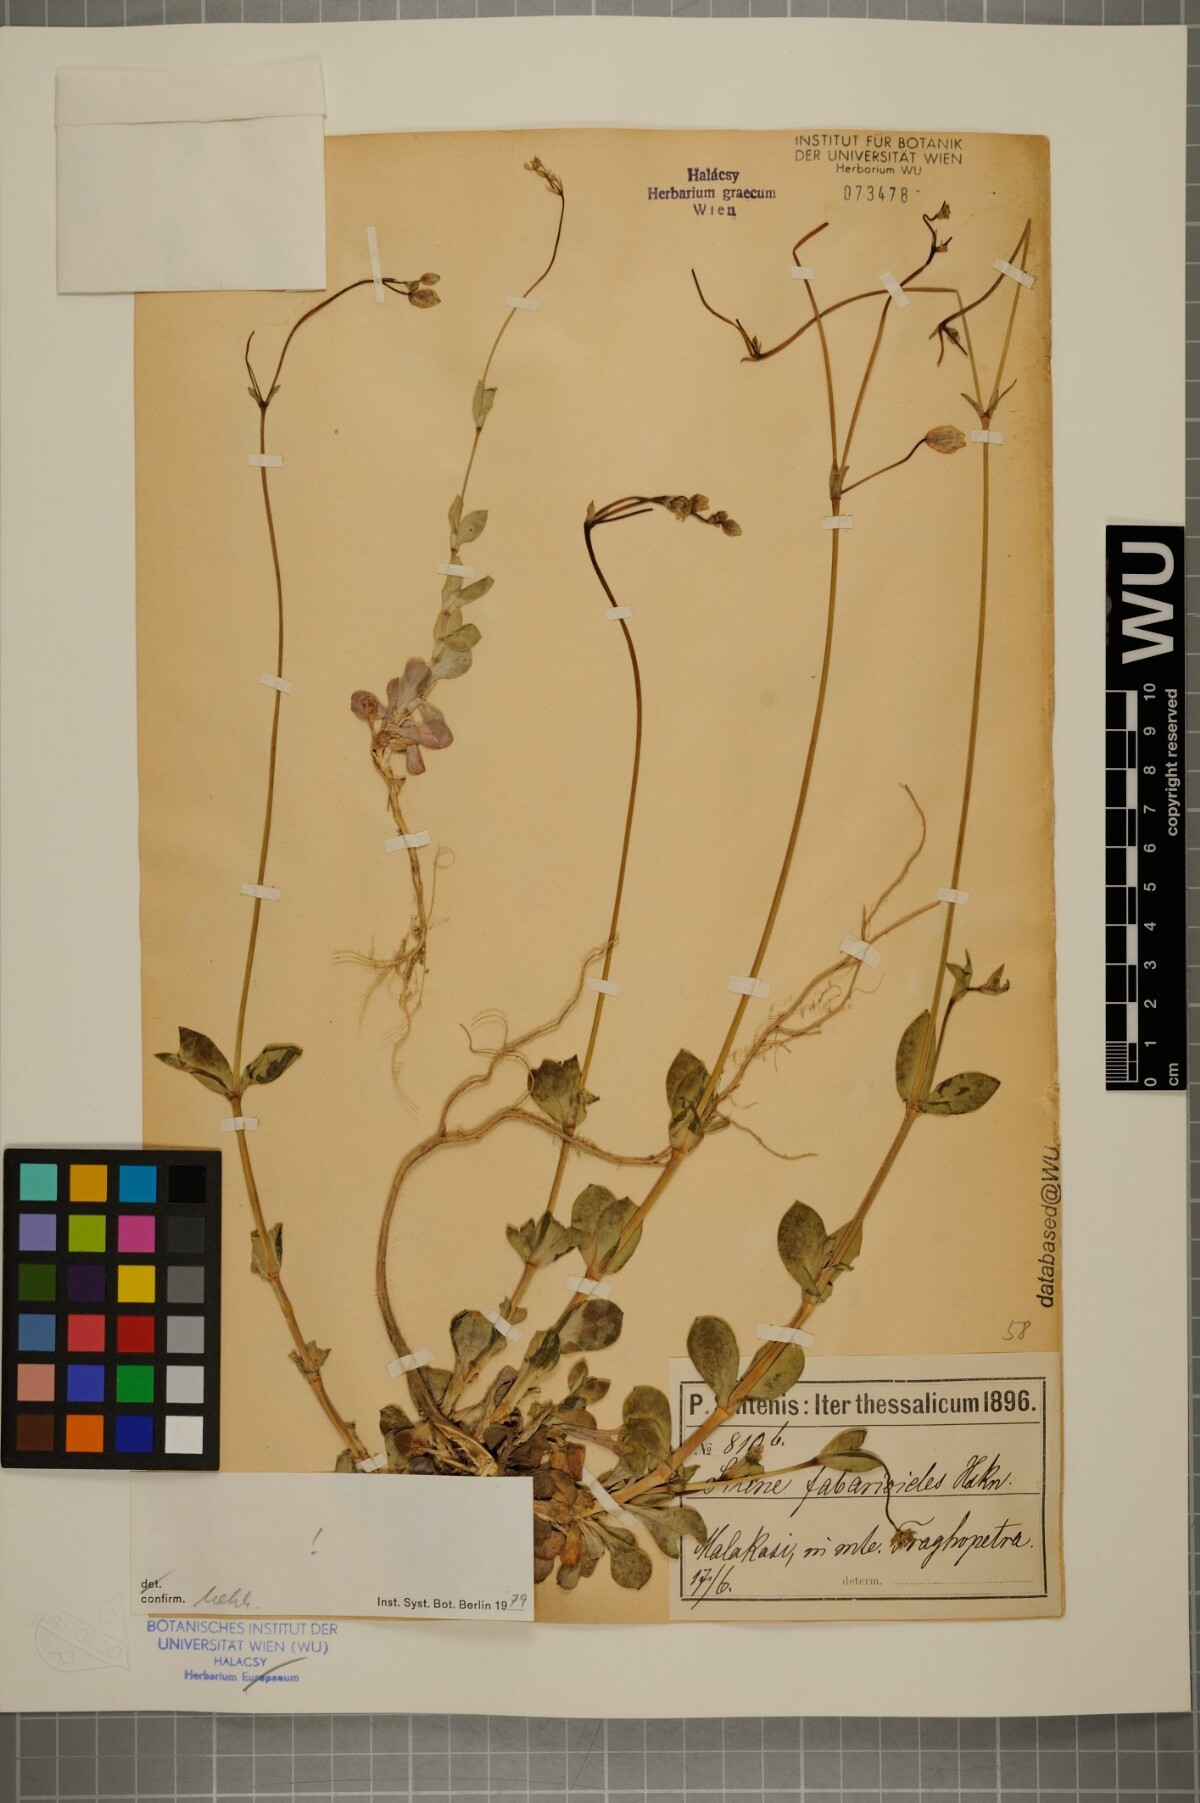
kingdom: Plantae
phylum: Tracheophyta
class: Magnoliopsida
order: Caryophyllales
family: Caryophyllaceae
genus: Silene
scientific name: Silene fabarioides
